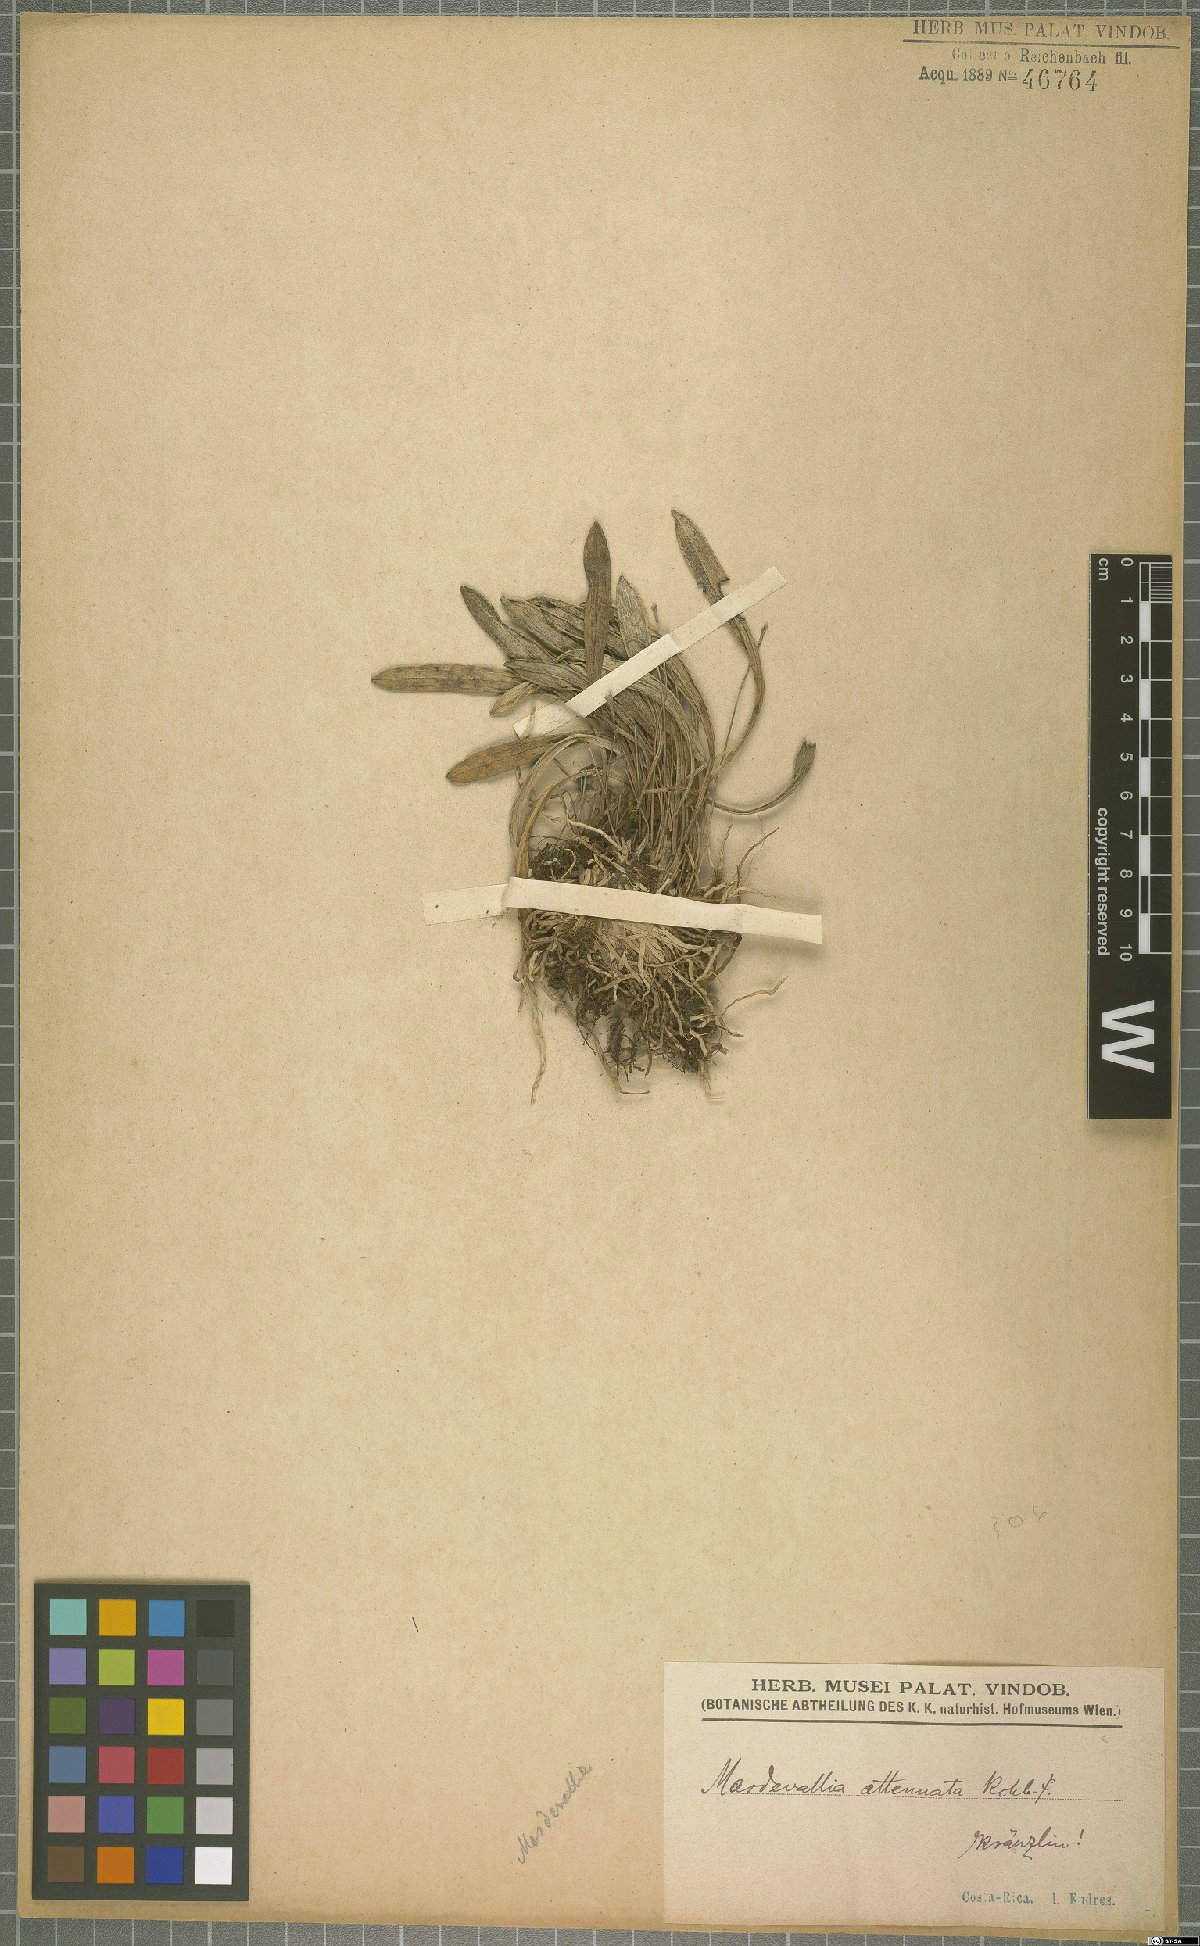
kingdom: Plantae
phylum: Tracheophyta
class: Liliopsida
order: Asparagales
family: Orchidaceae
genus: Masdevallia
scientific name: Masdevallia striatella
